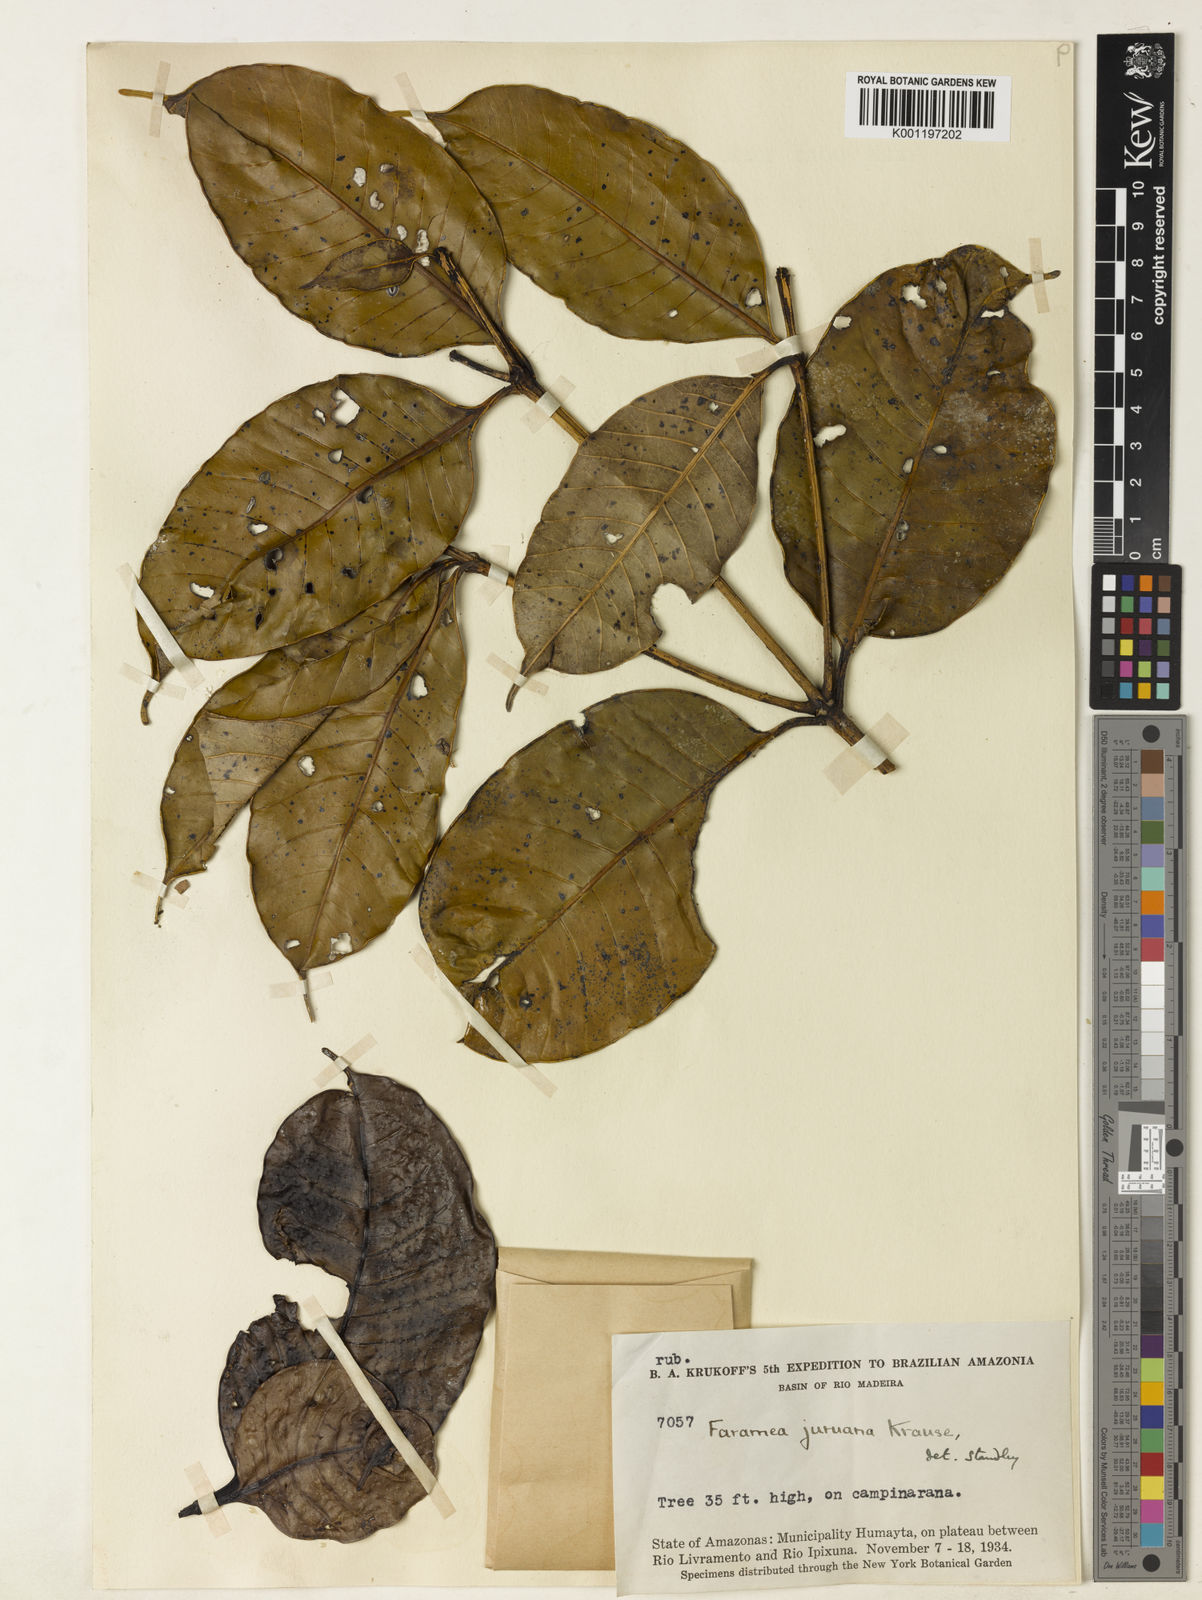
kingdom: Plantae
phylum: Tracheophyta
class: Magnoliopsida
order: Gentianales
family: Rubiaceae
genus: Faramea
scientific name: Faramea juruana
